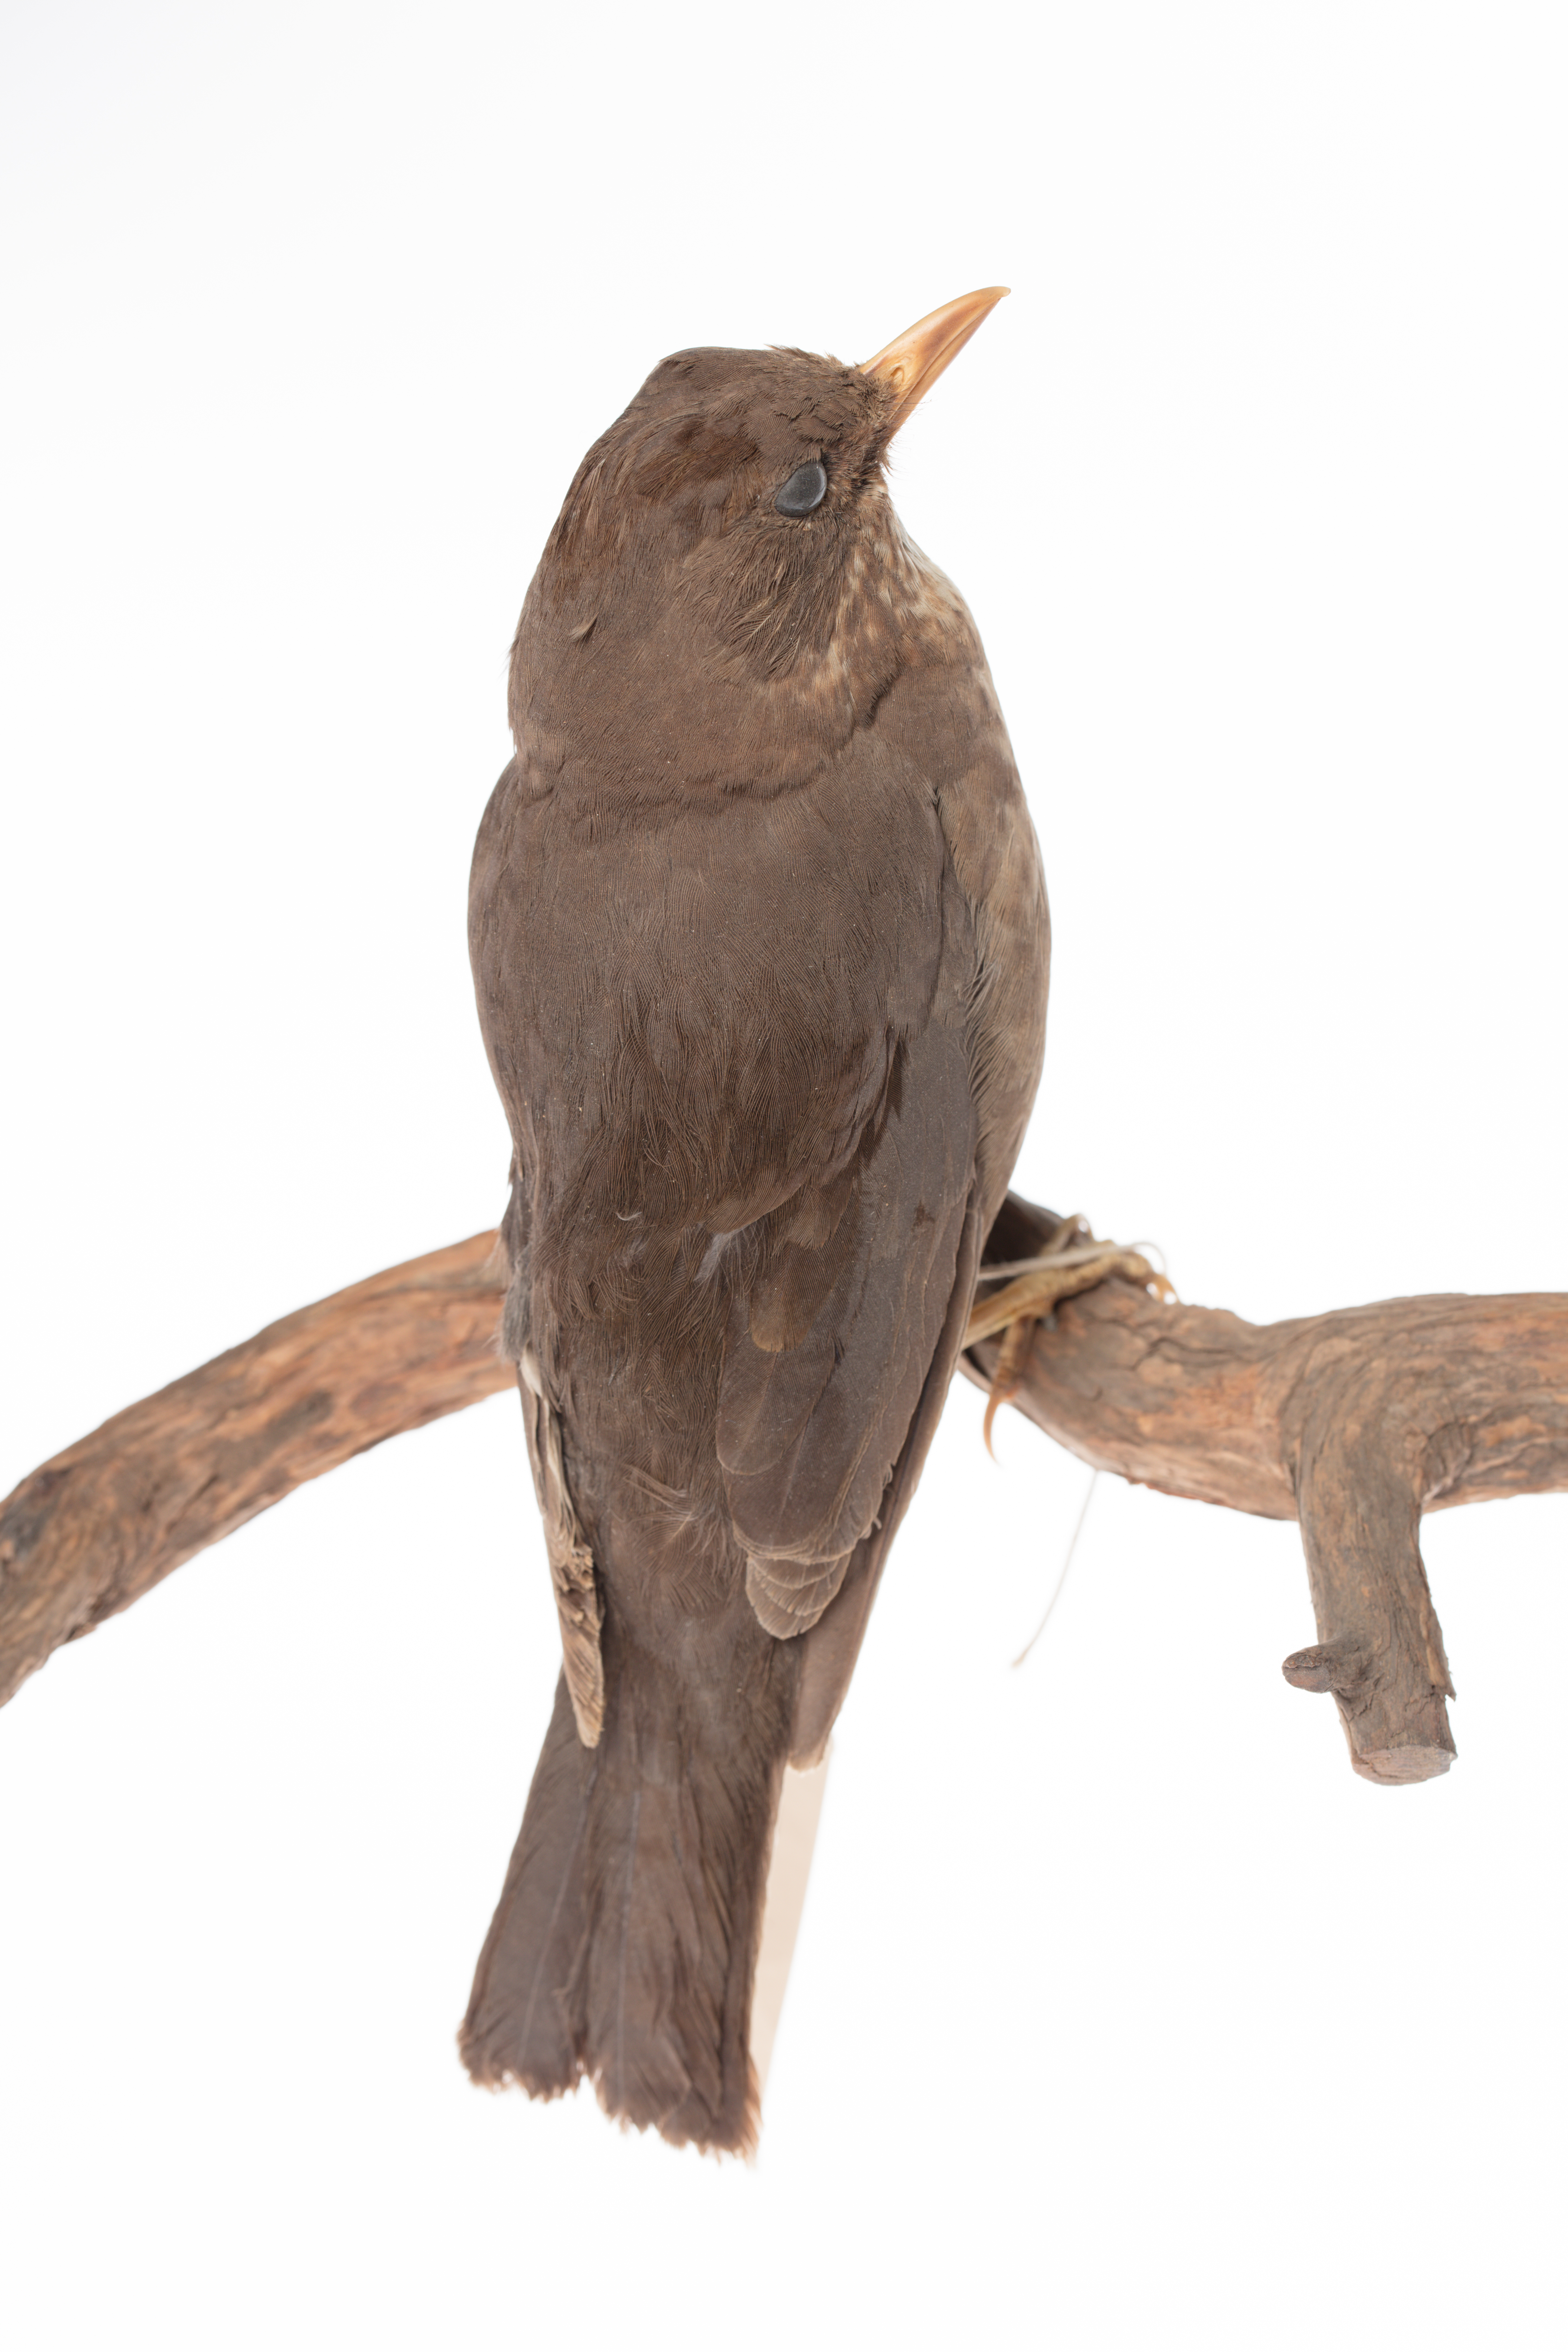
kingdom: Animalia
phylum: Chordata
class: Aves
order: Passeriformes
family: Turdidae
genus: Turdus
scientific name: Turdus merula
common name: Common blackbird
